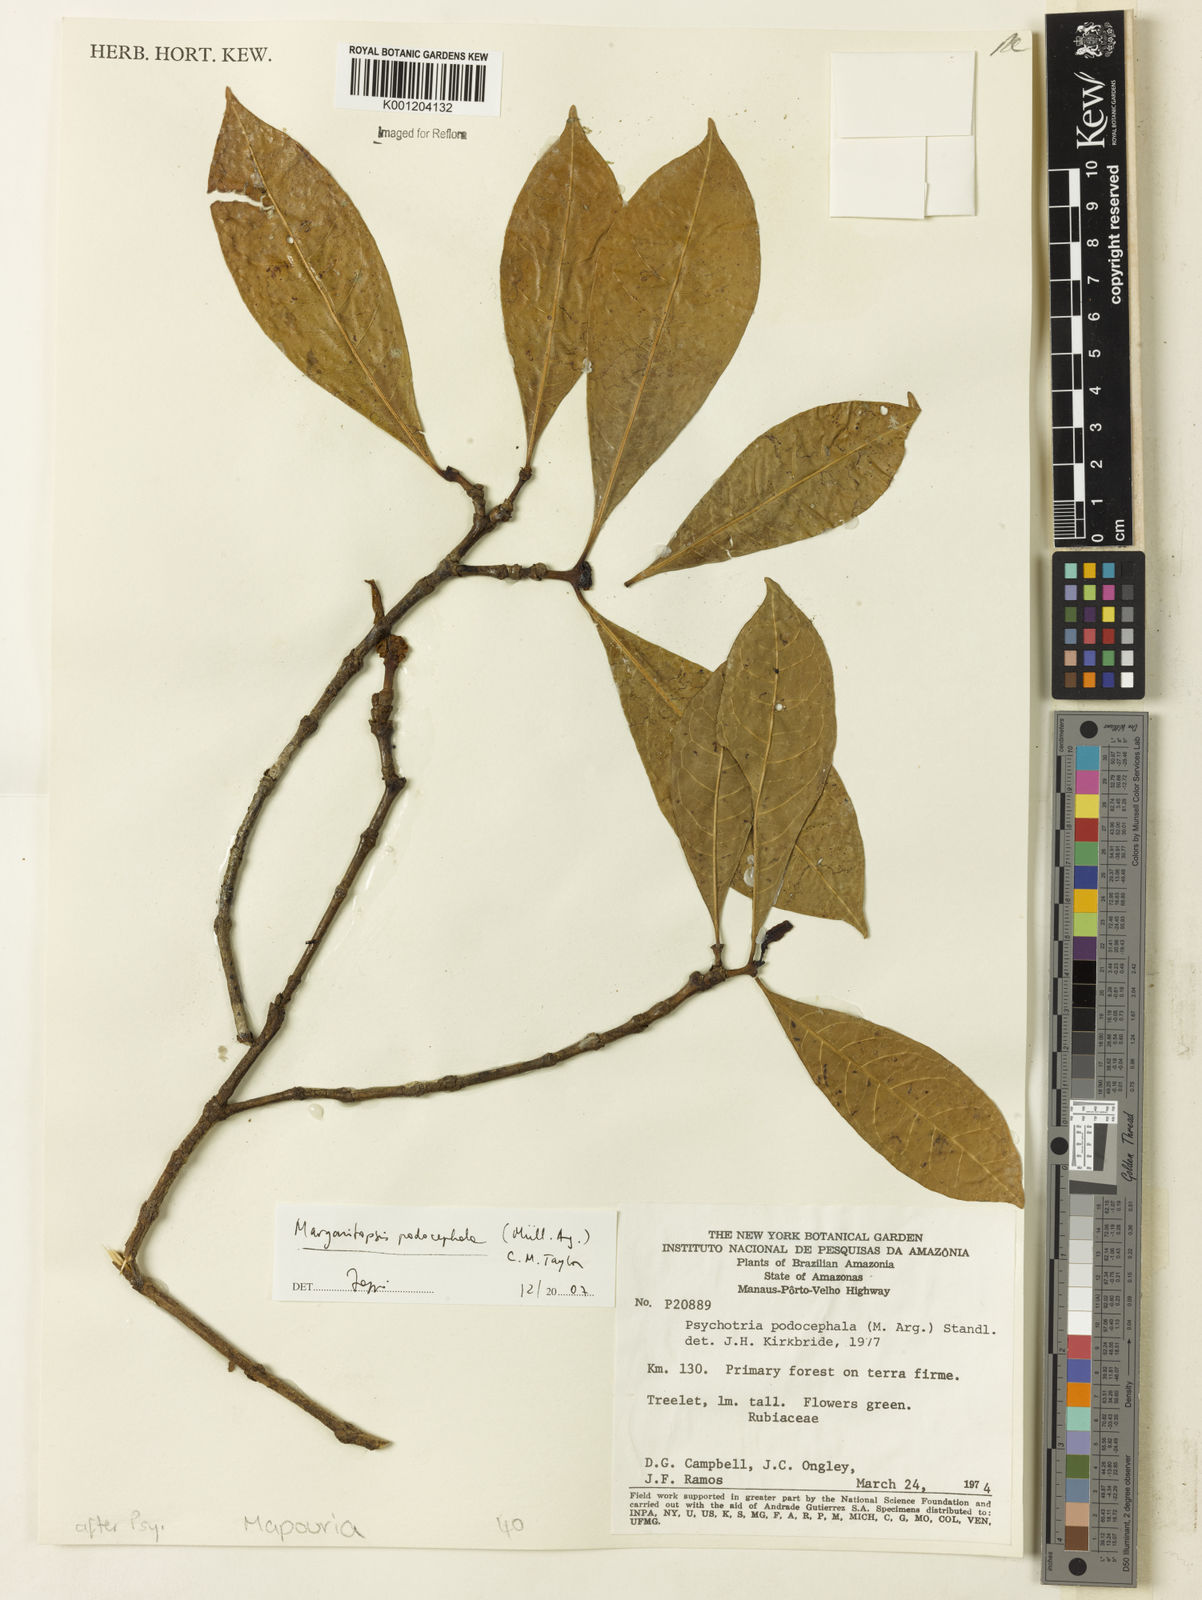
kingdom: Plantae
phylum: Tracheophyta
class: Magnoliopsida
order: Gentianales
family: Rubiaceae
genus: Eumachia
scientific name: Eumachia
